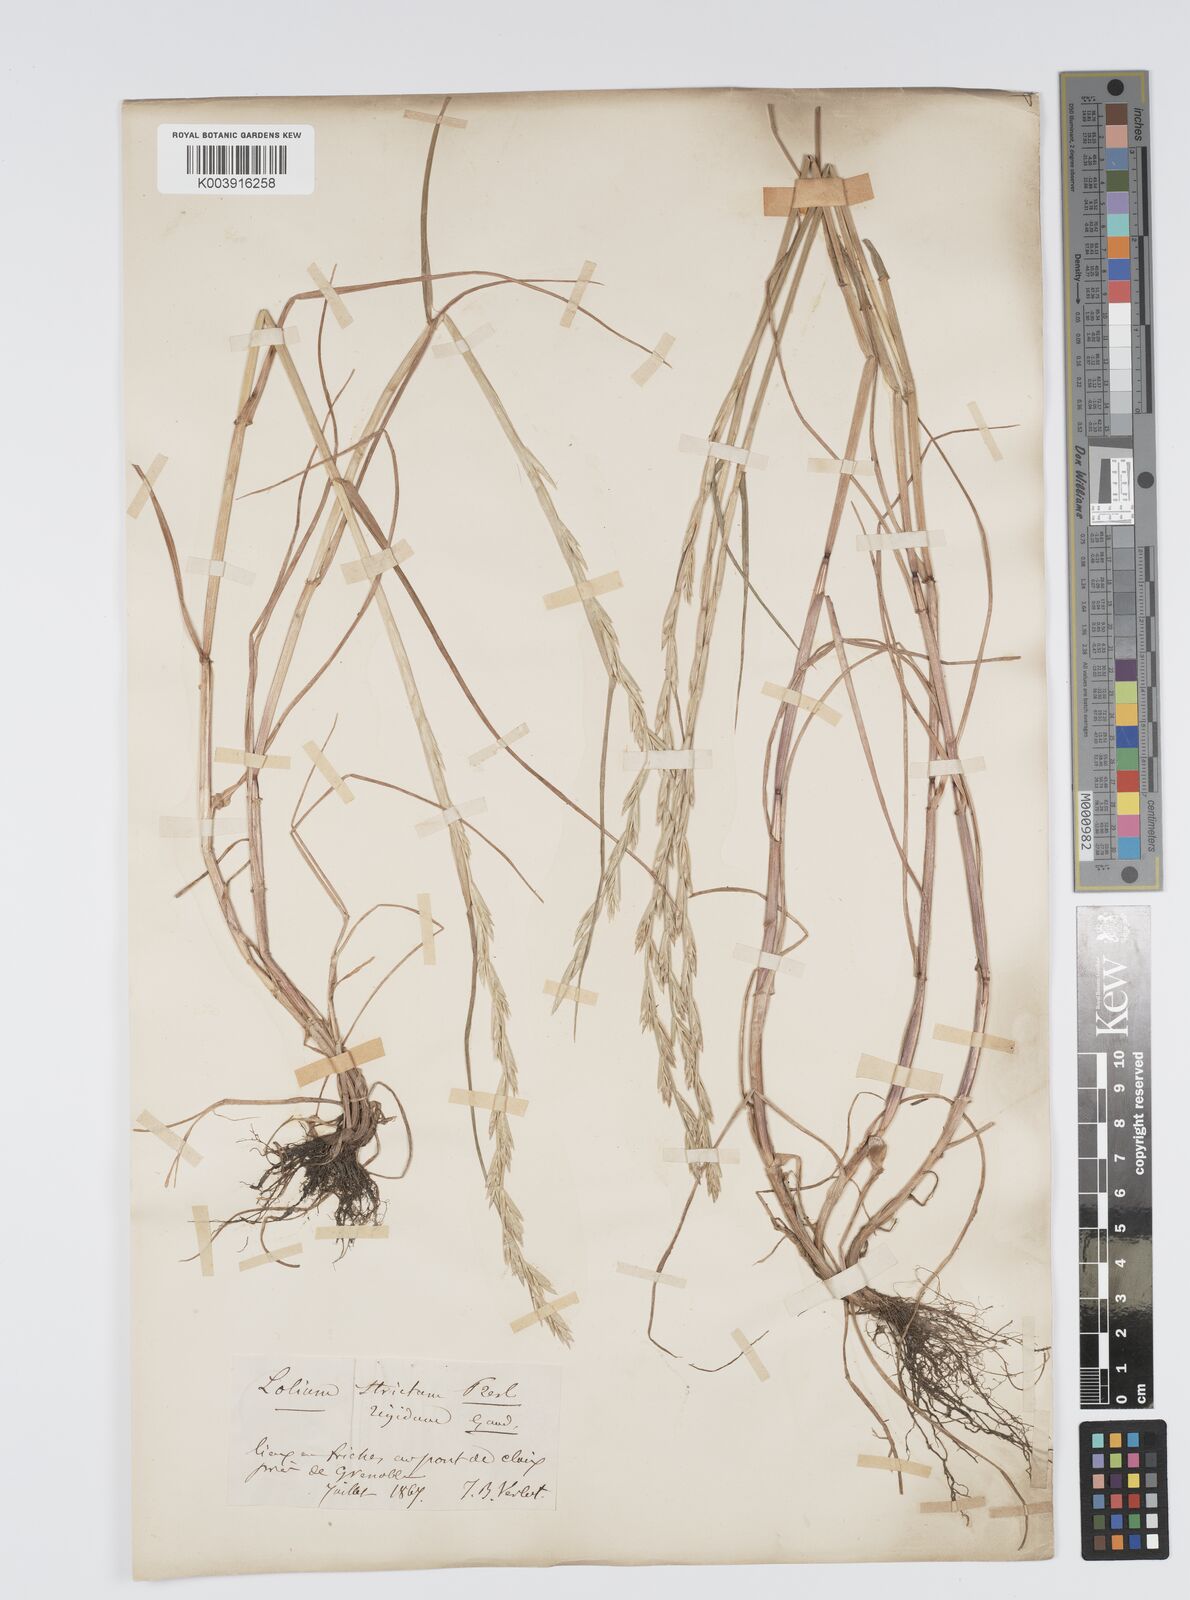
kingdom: Plantae
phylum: Tracheophyta
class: Liliopsida
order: Poales
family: Poaceae
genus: Lolium
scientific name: Lolium rigidum
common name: Wimmera ryegrass
